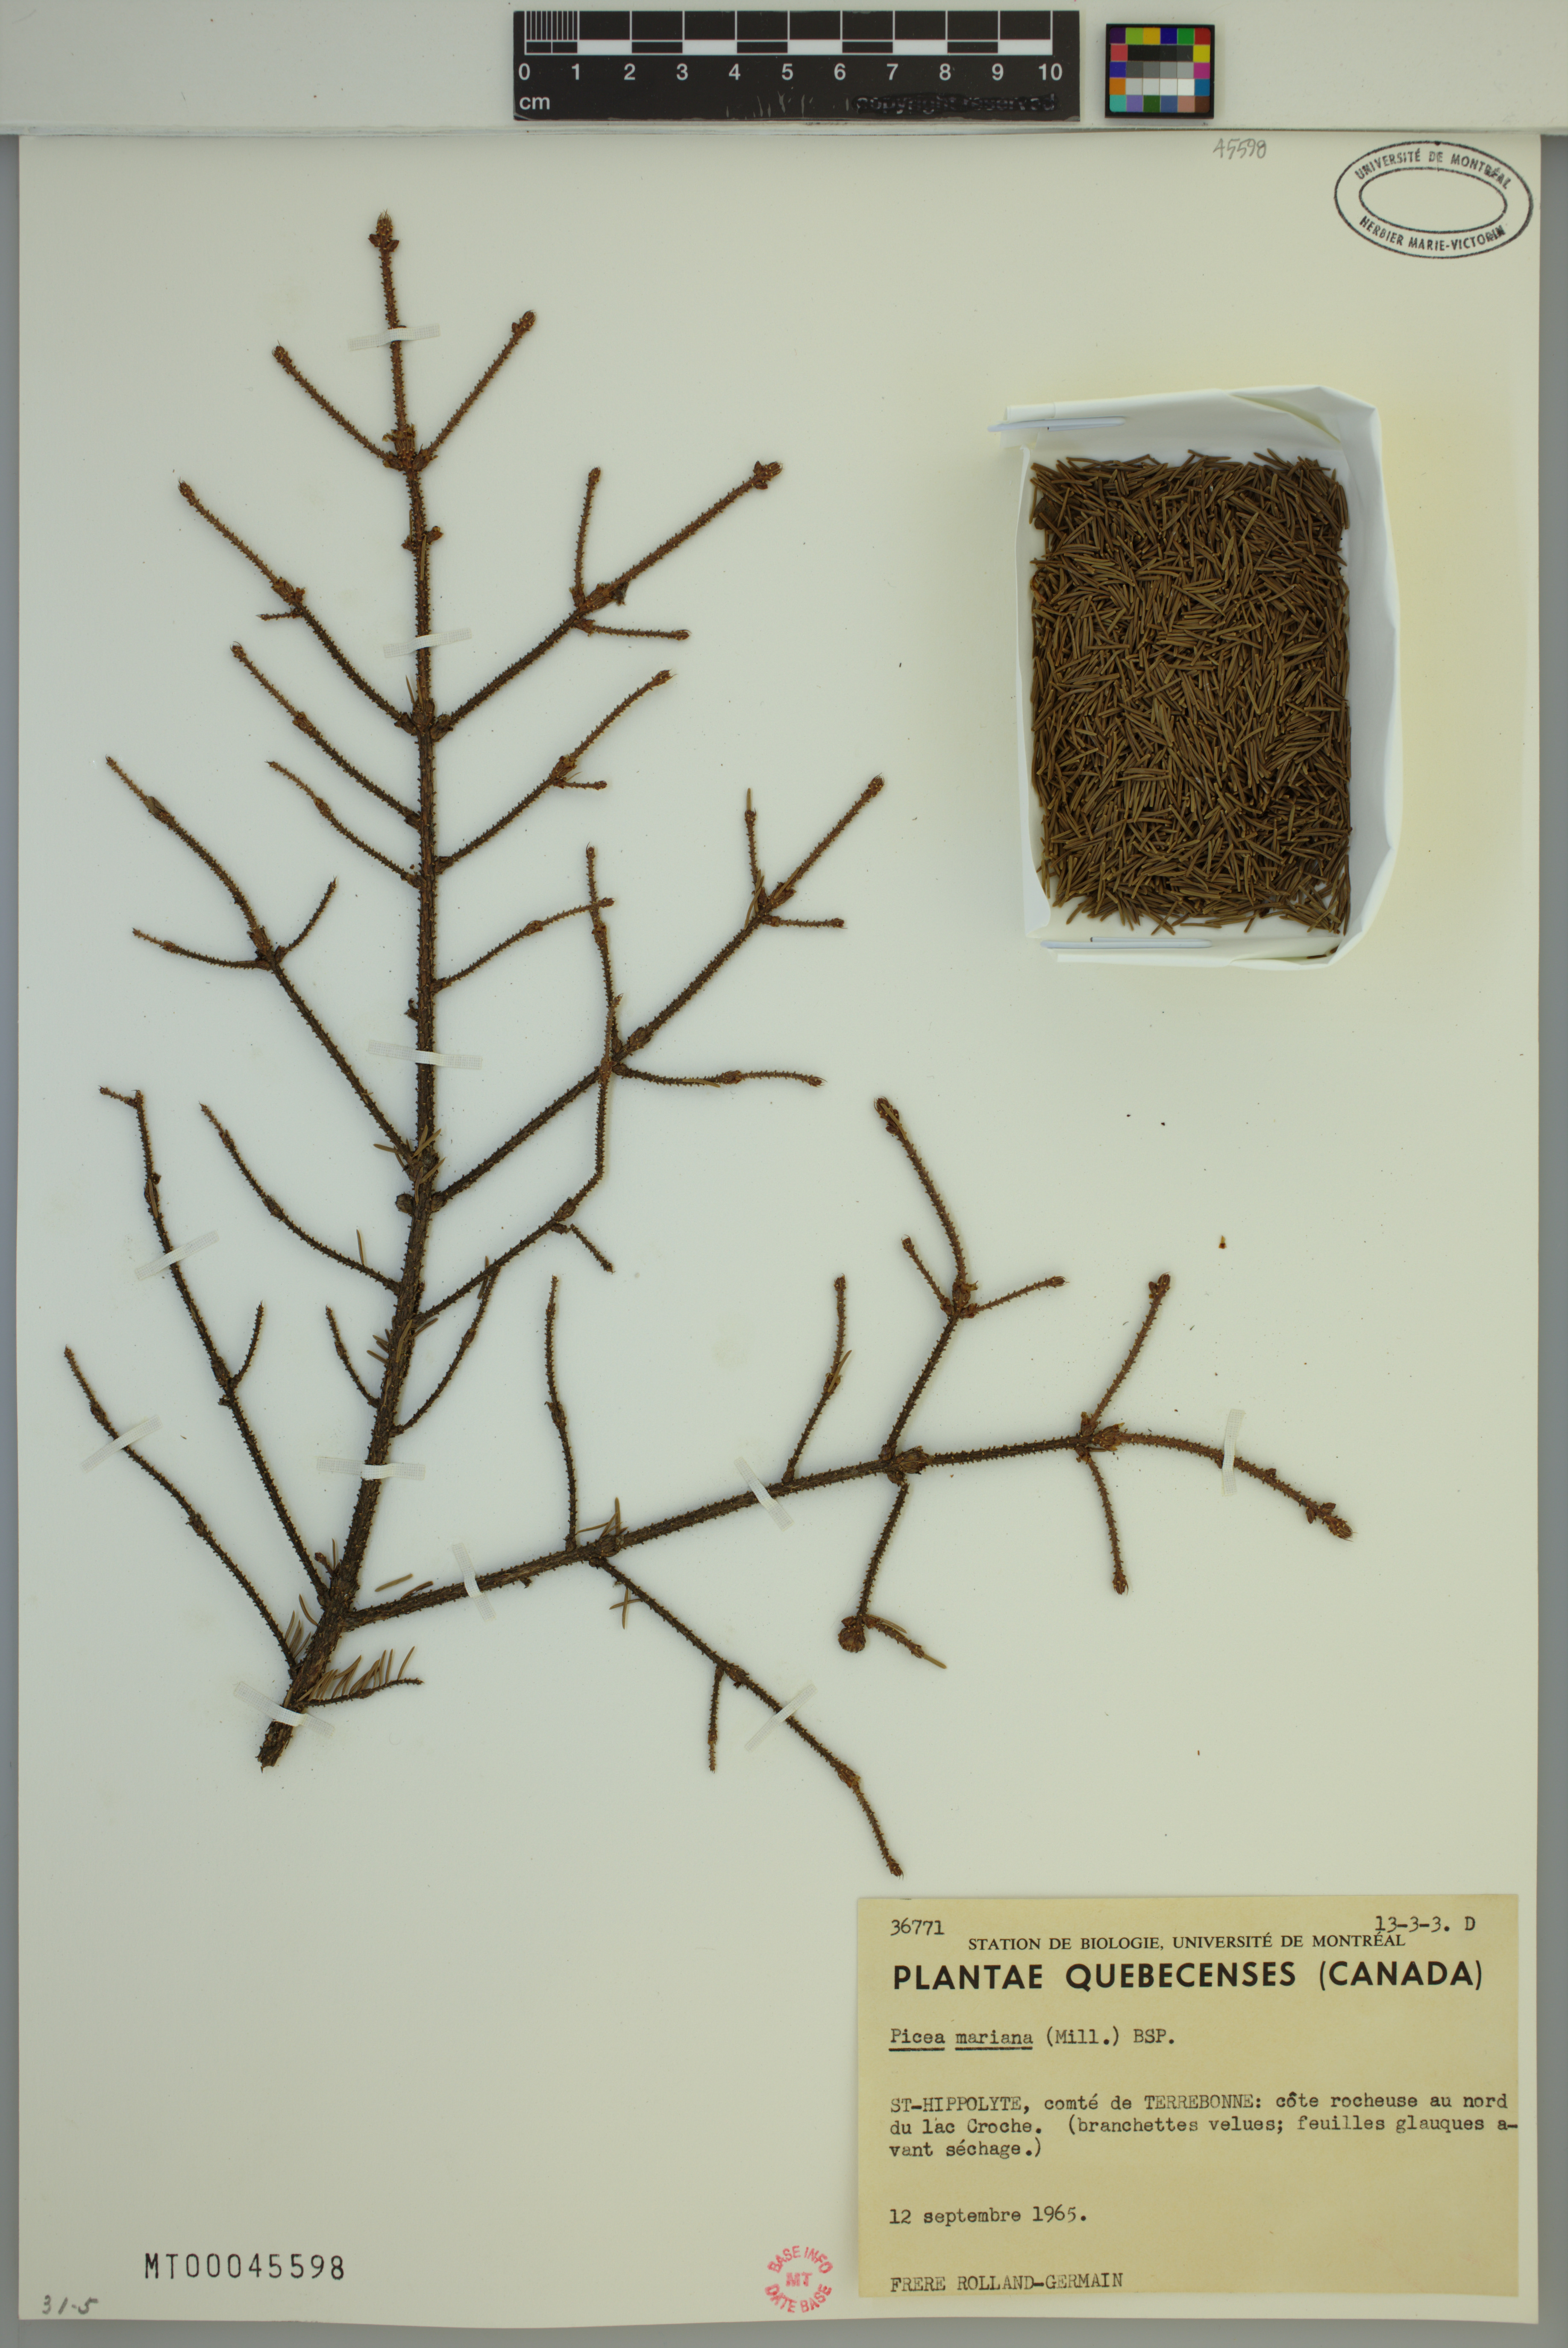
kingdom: Plantae
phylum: Tracheophyta
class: Pinopsida
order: Pinales
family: Pinaceae
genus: Picea
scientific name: Picea mariana
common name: Black spruce
